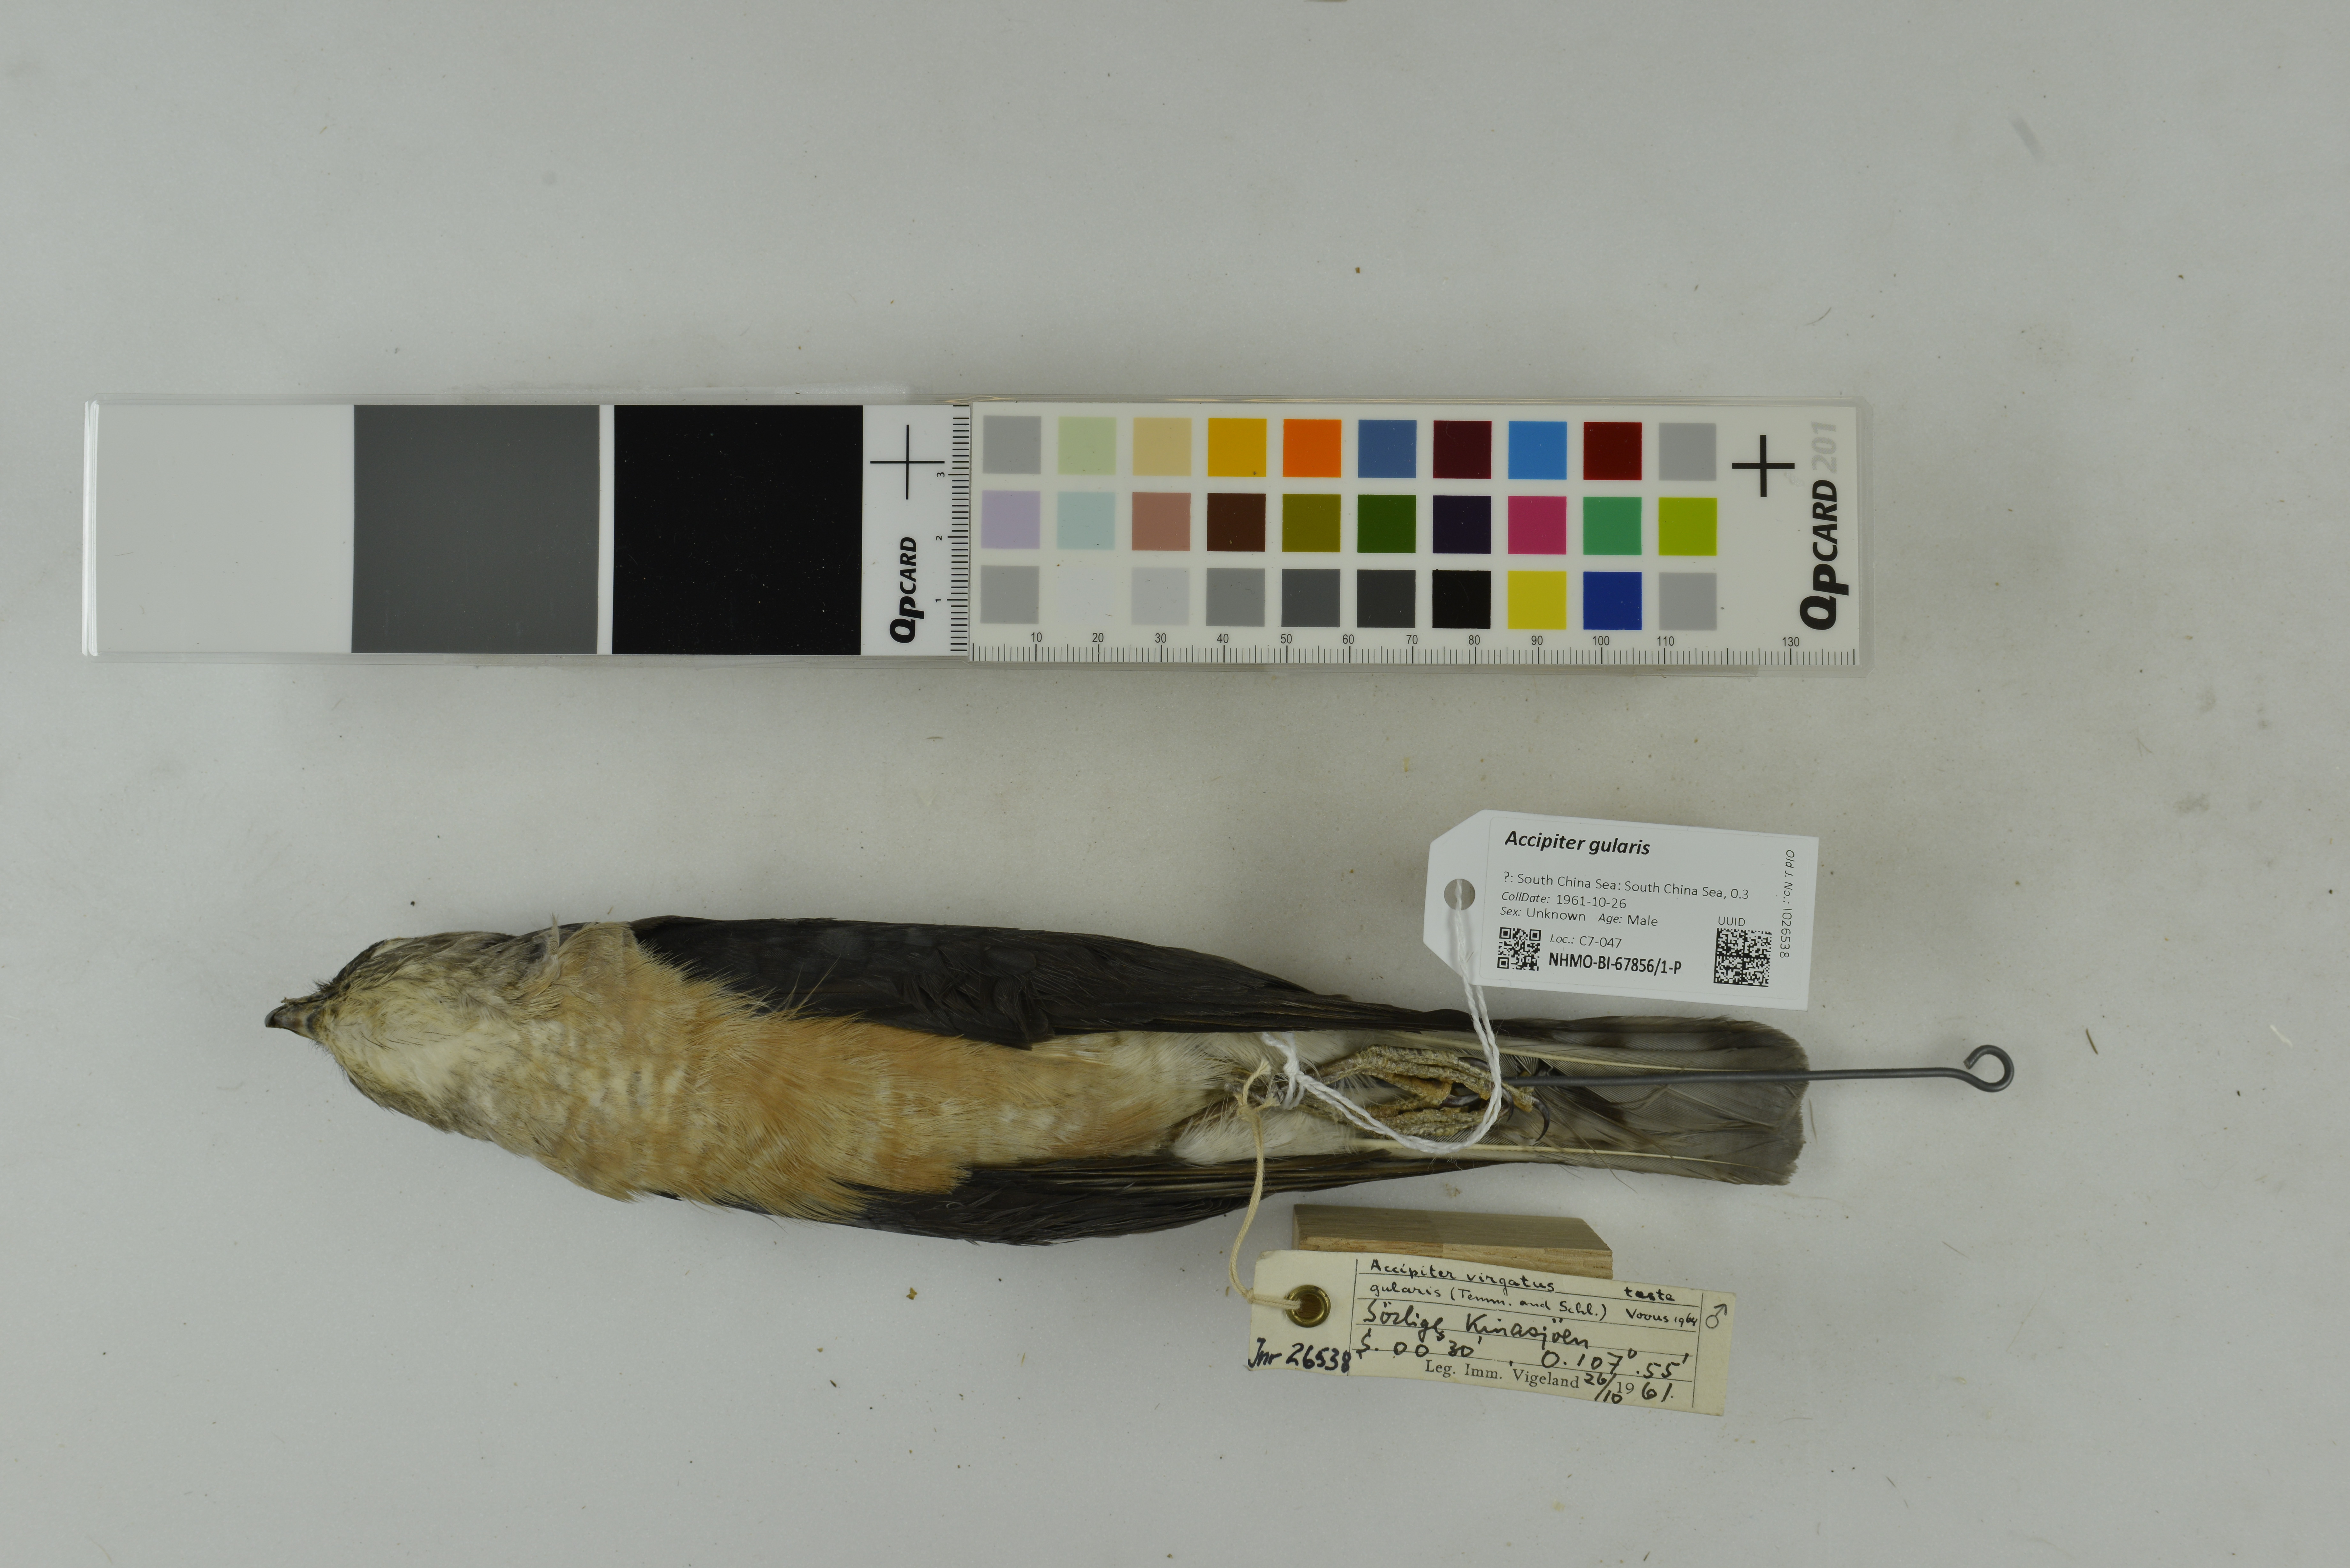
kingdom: Animalia
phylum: Chordata
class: Aves
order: Accipitriformes
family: Accipitridae
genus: Accipiter
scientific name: Accipiter gularis
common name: Japanese sparrowhawk
